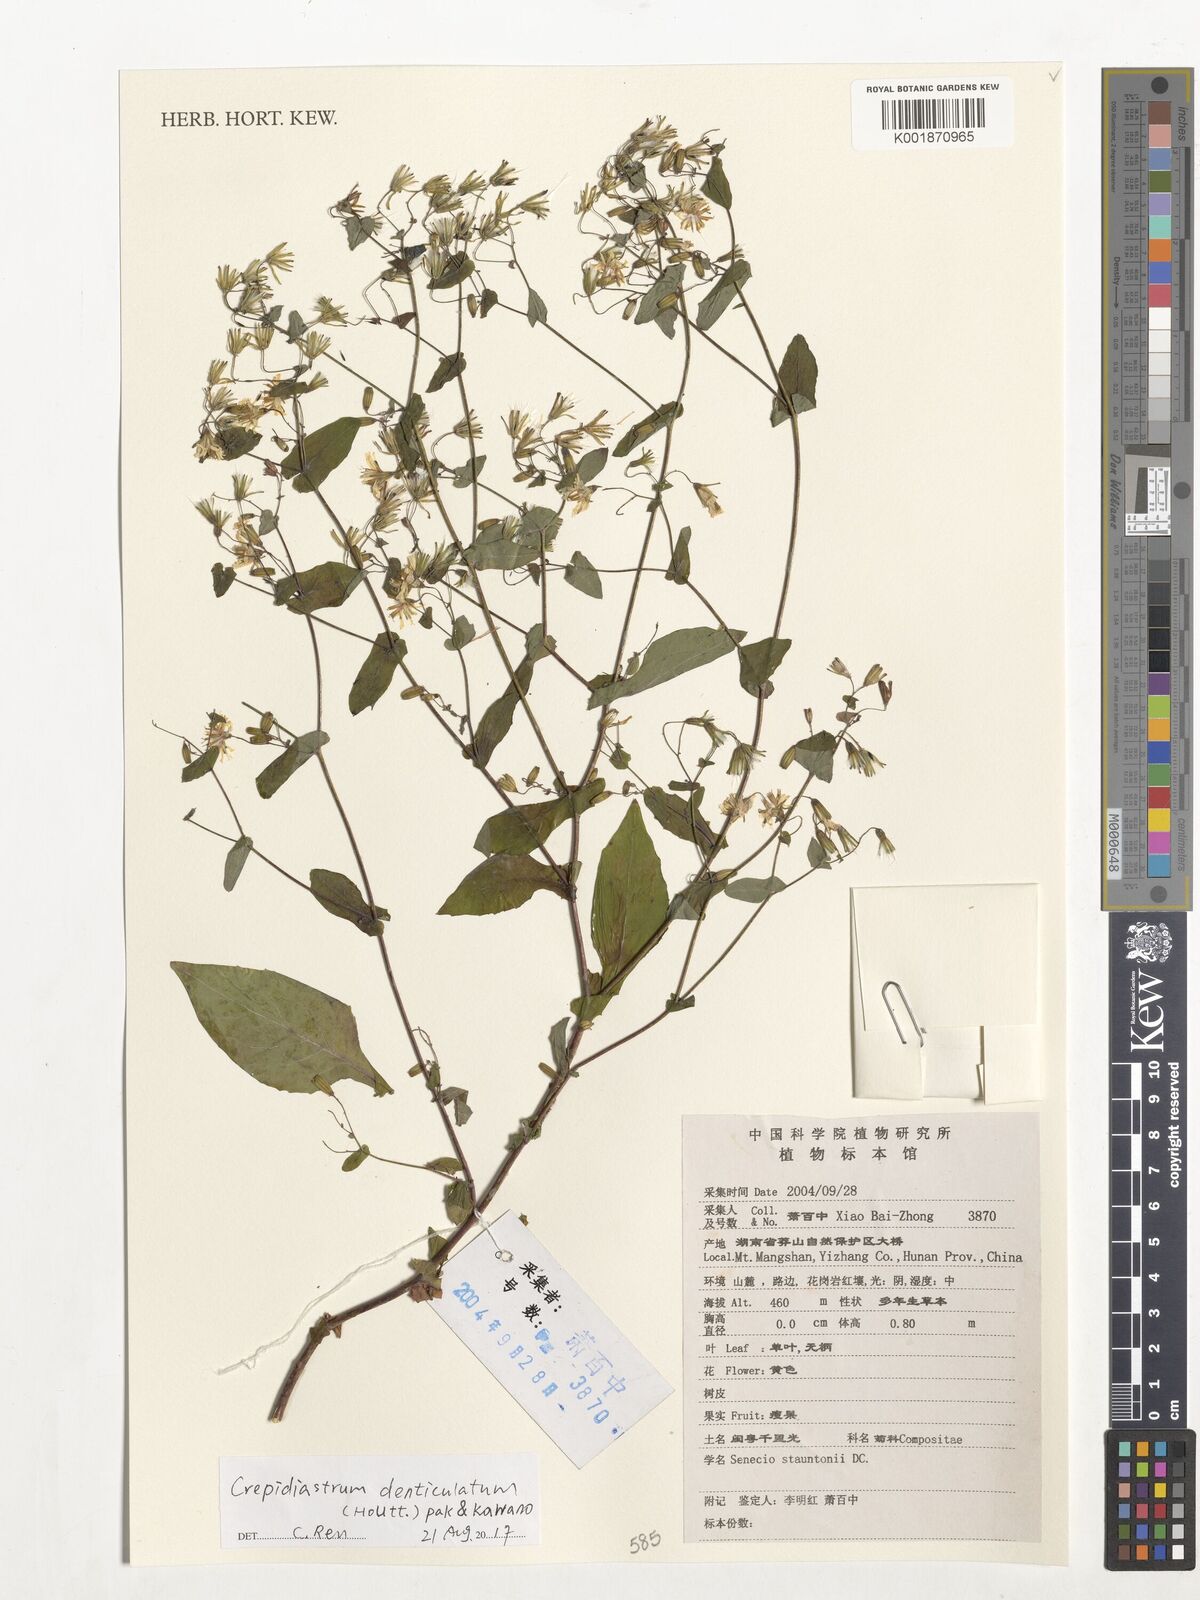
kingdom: Plantae
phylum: Tracheophyta
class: Magnoliopsida
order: Asterales
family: Asteraceae
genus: Crepidiastrum
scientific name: Crepidiastrum denticulatum
